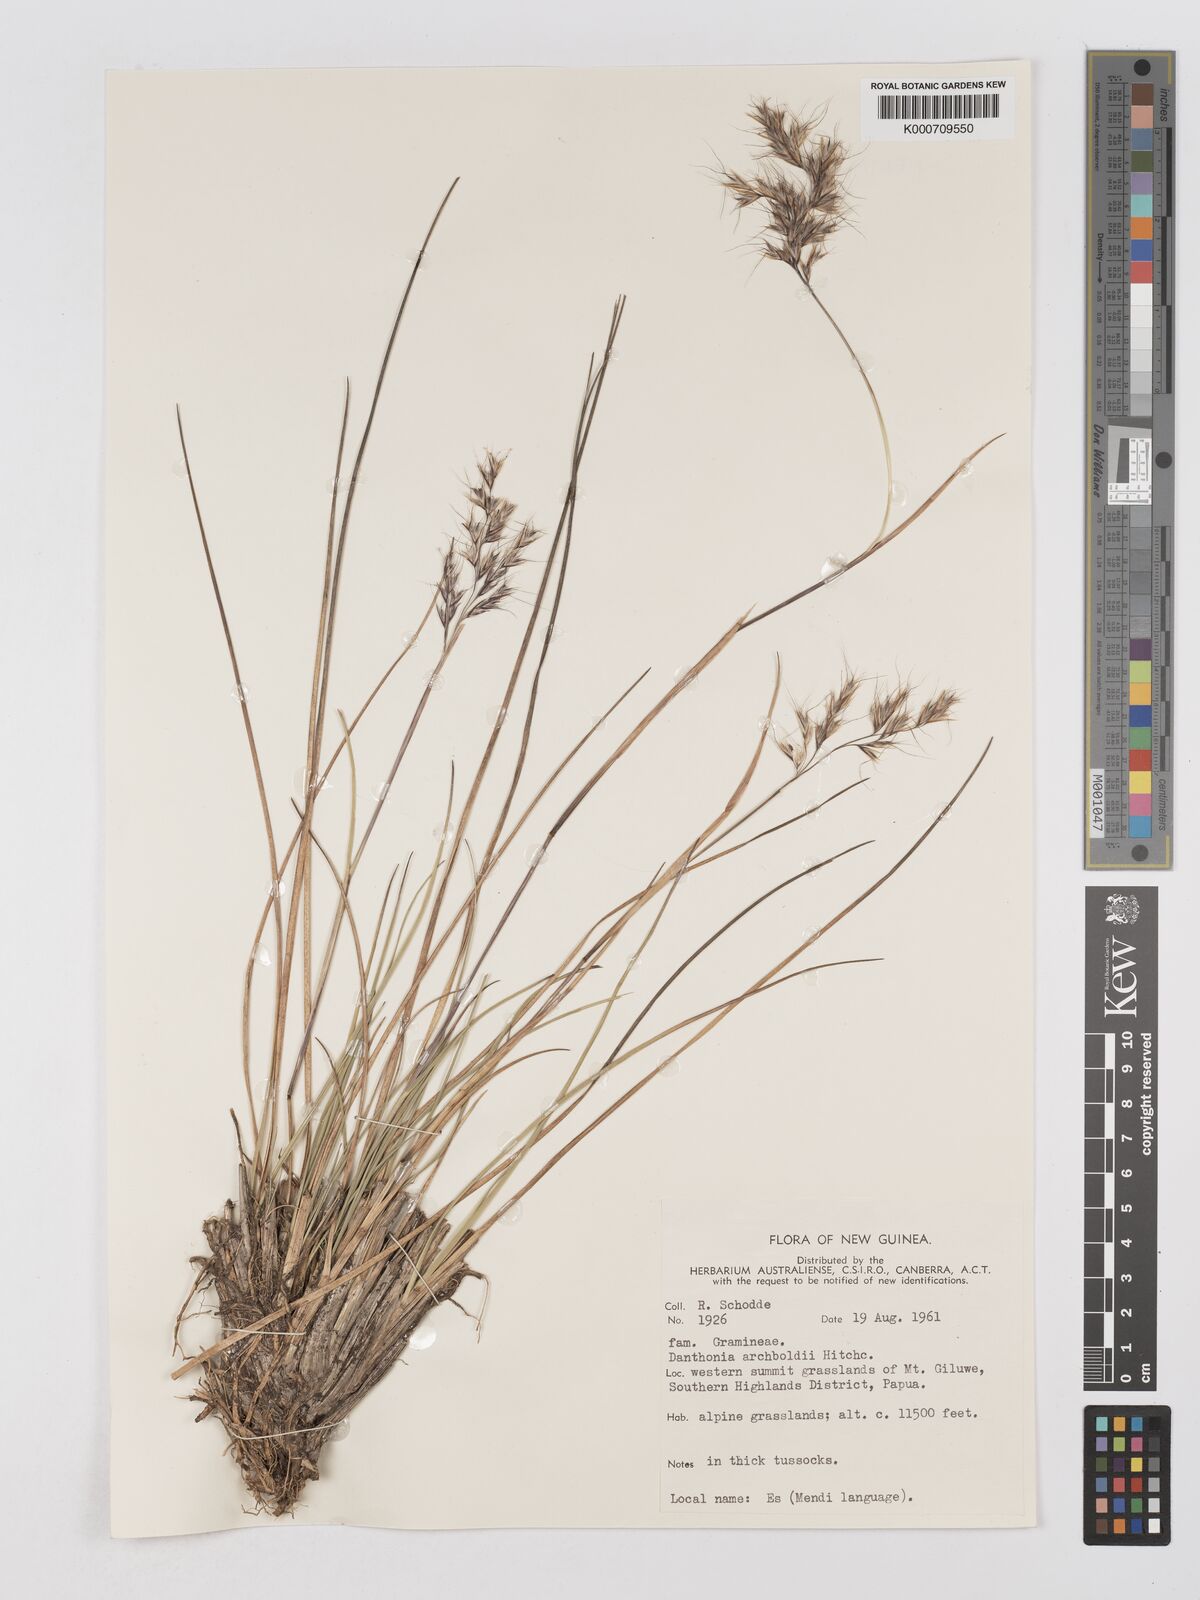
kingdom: Plantae
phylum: Tracheophyta
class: Liliopsida
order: Poales
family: Poaceae
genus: Chimaerochloa
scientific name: Chimaerochloa archboldii
